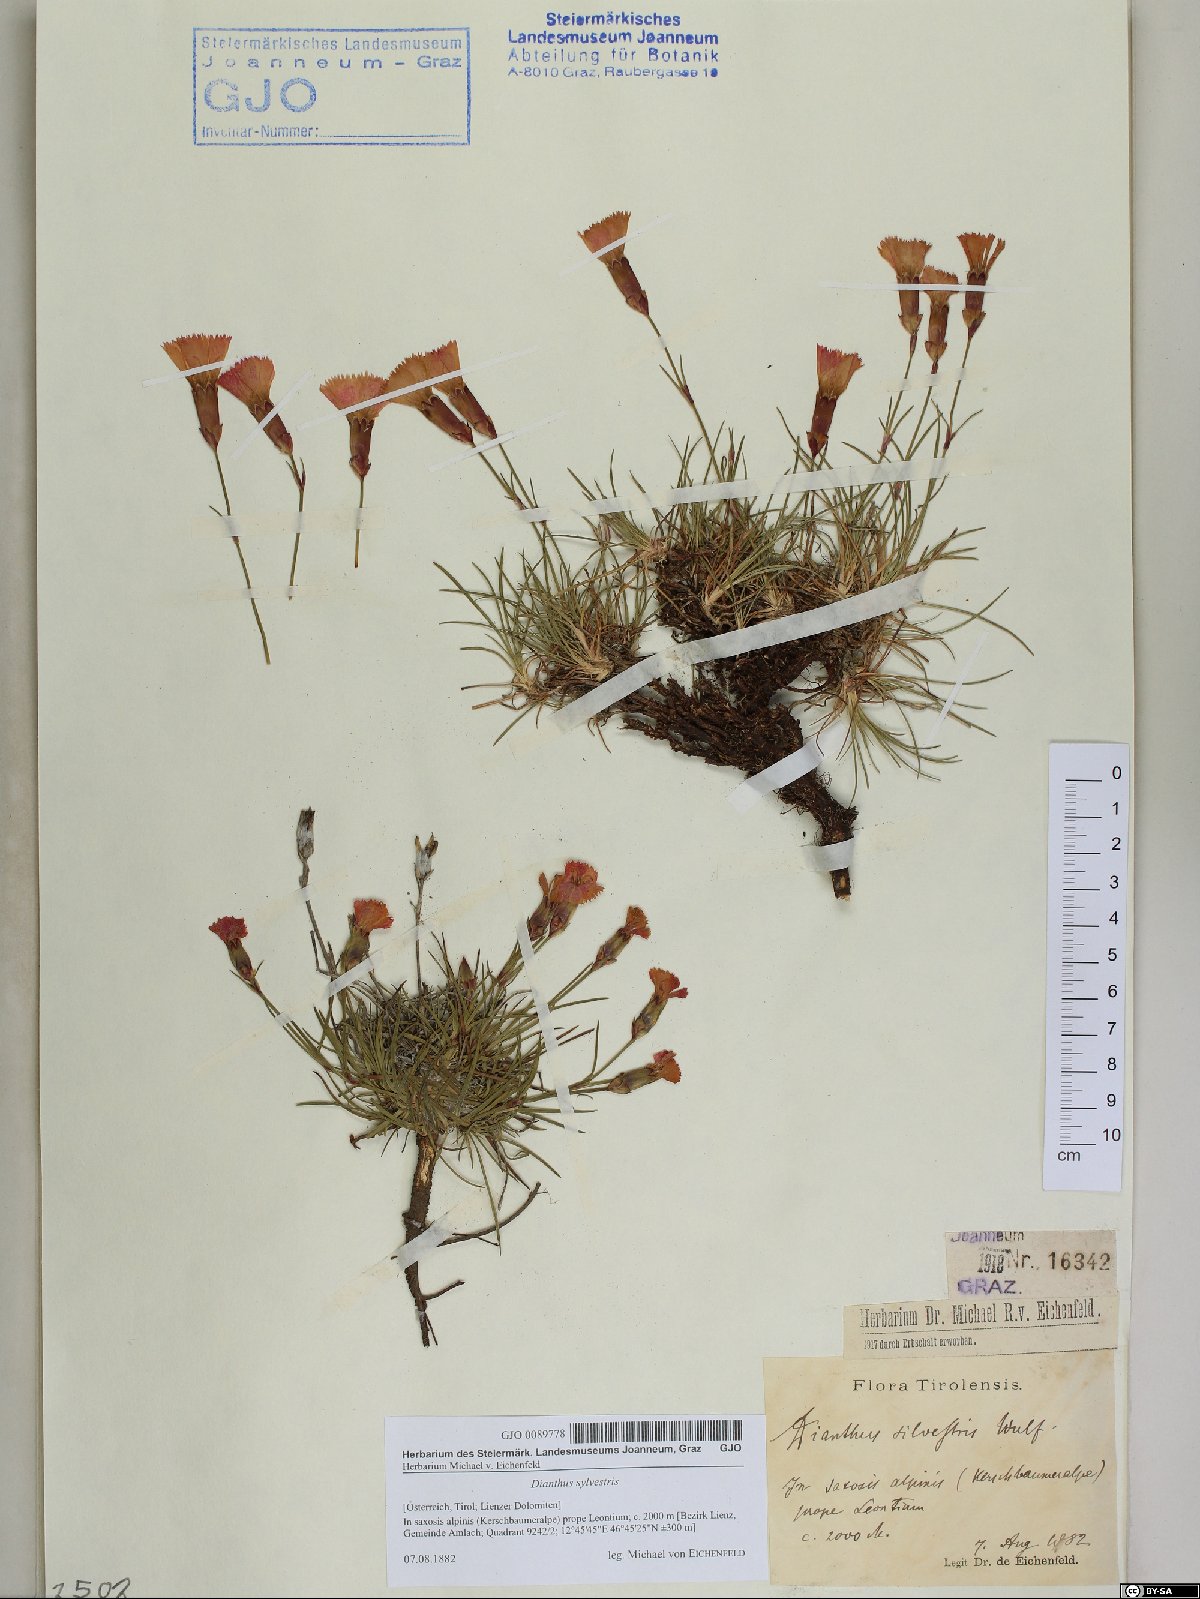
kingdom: Plantae
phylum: Tracheophyta
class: Magnoliopsida
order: Caryophyllales
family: Caryophyllaceae
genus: Dianthus
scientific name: Dianthus sylvestris
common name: Wood pink
